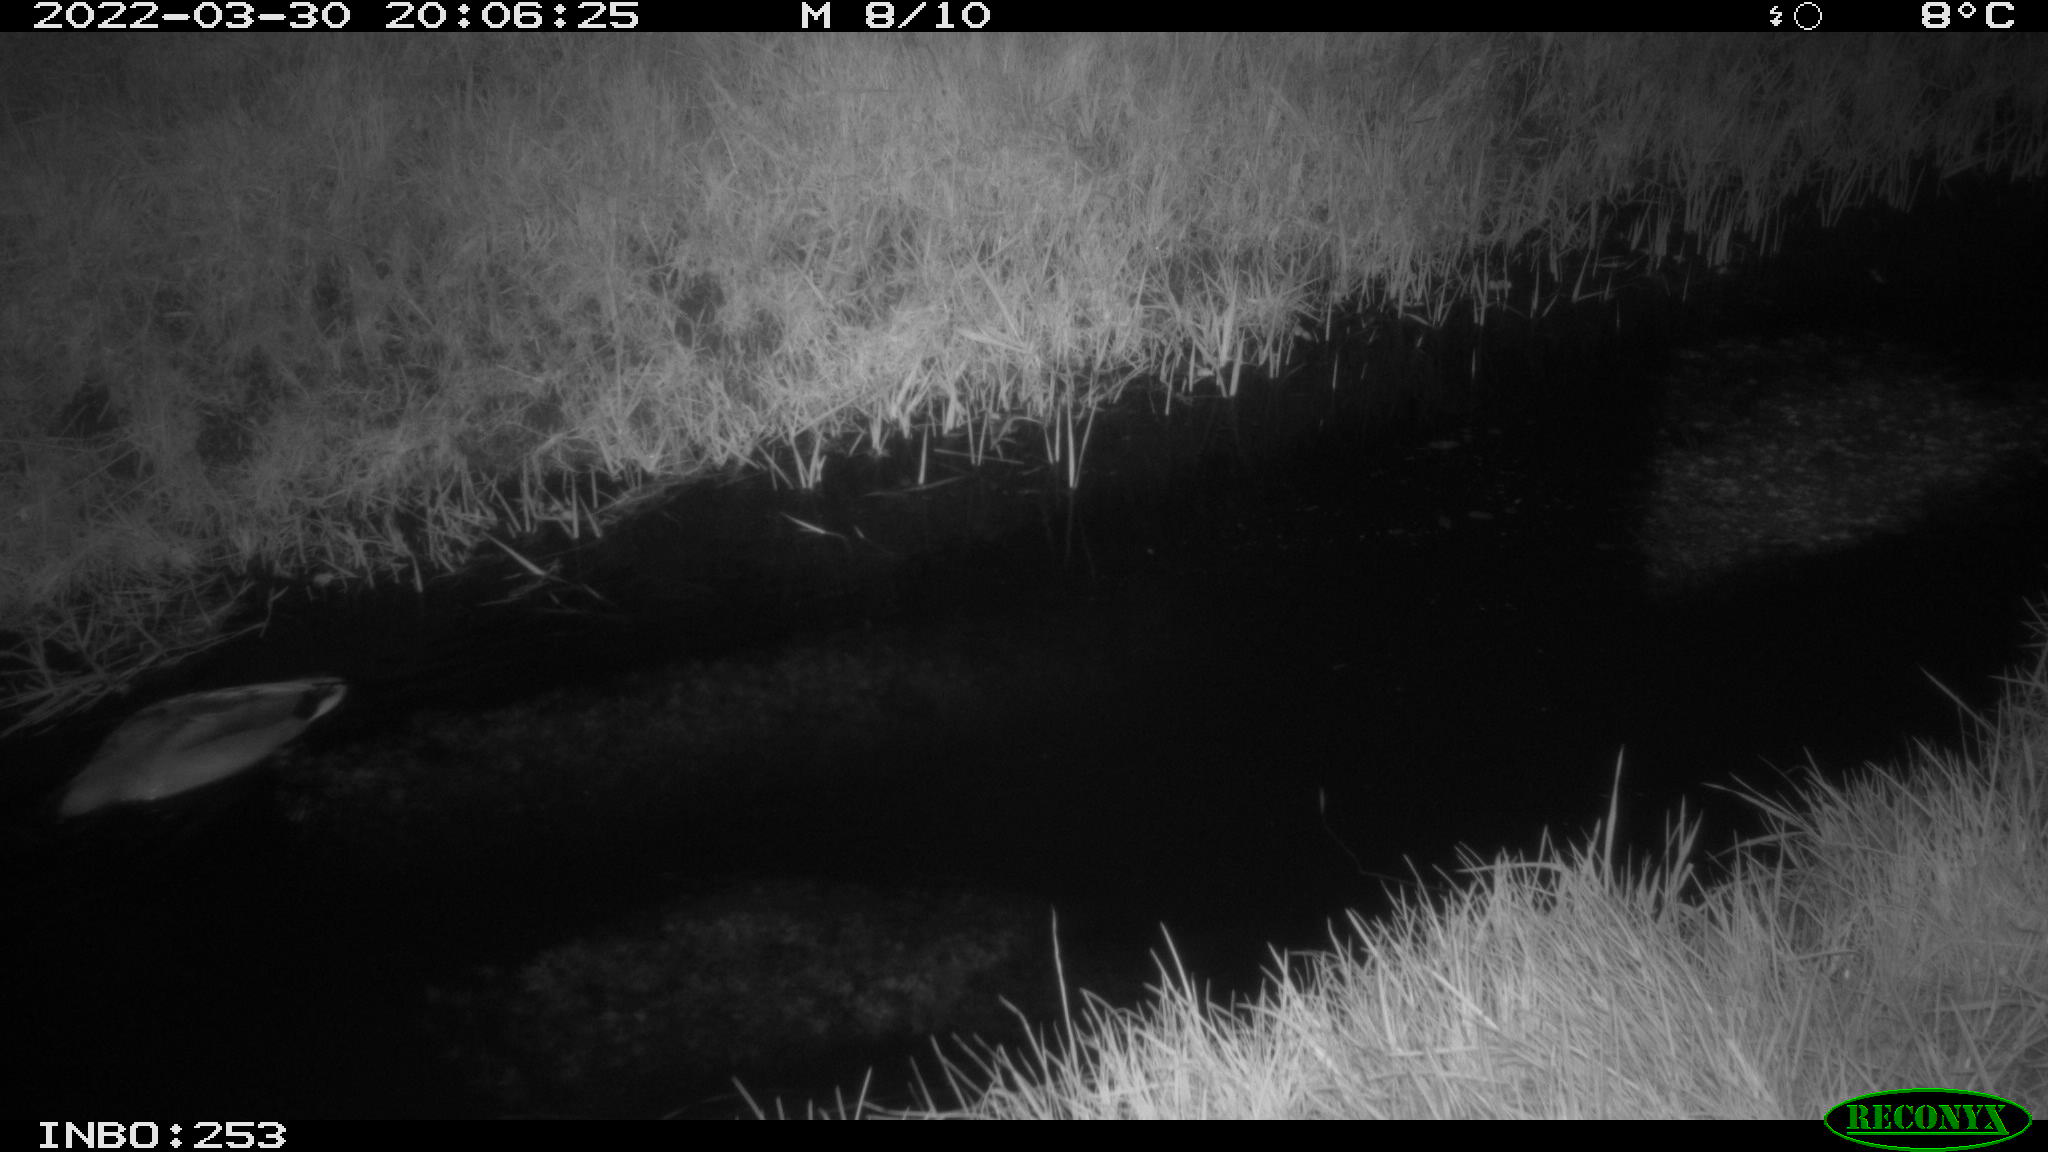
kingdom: Animalia
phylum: Chordata
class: Aves
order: Anseriformes
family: Anatidae
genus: Anas
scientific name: Anas platyrhynchos
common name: Mallard
